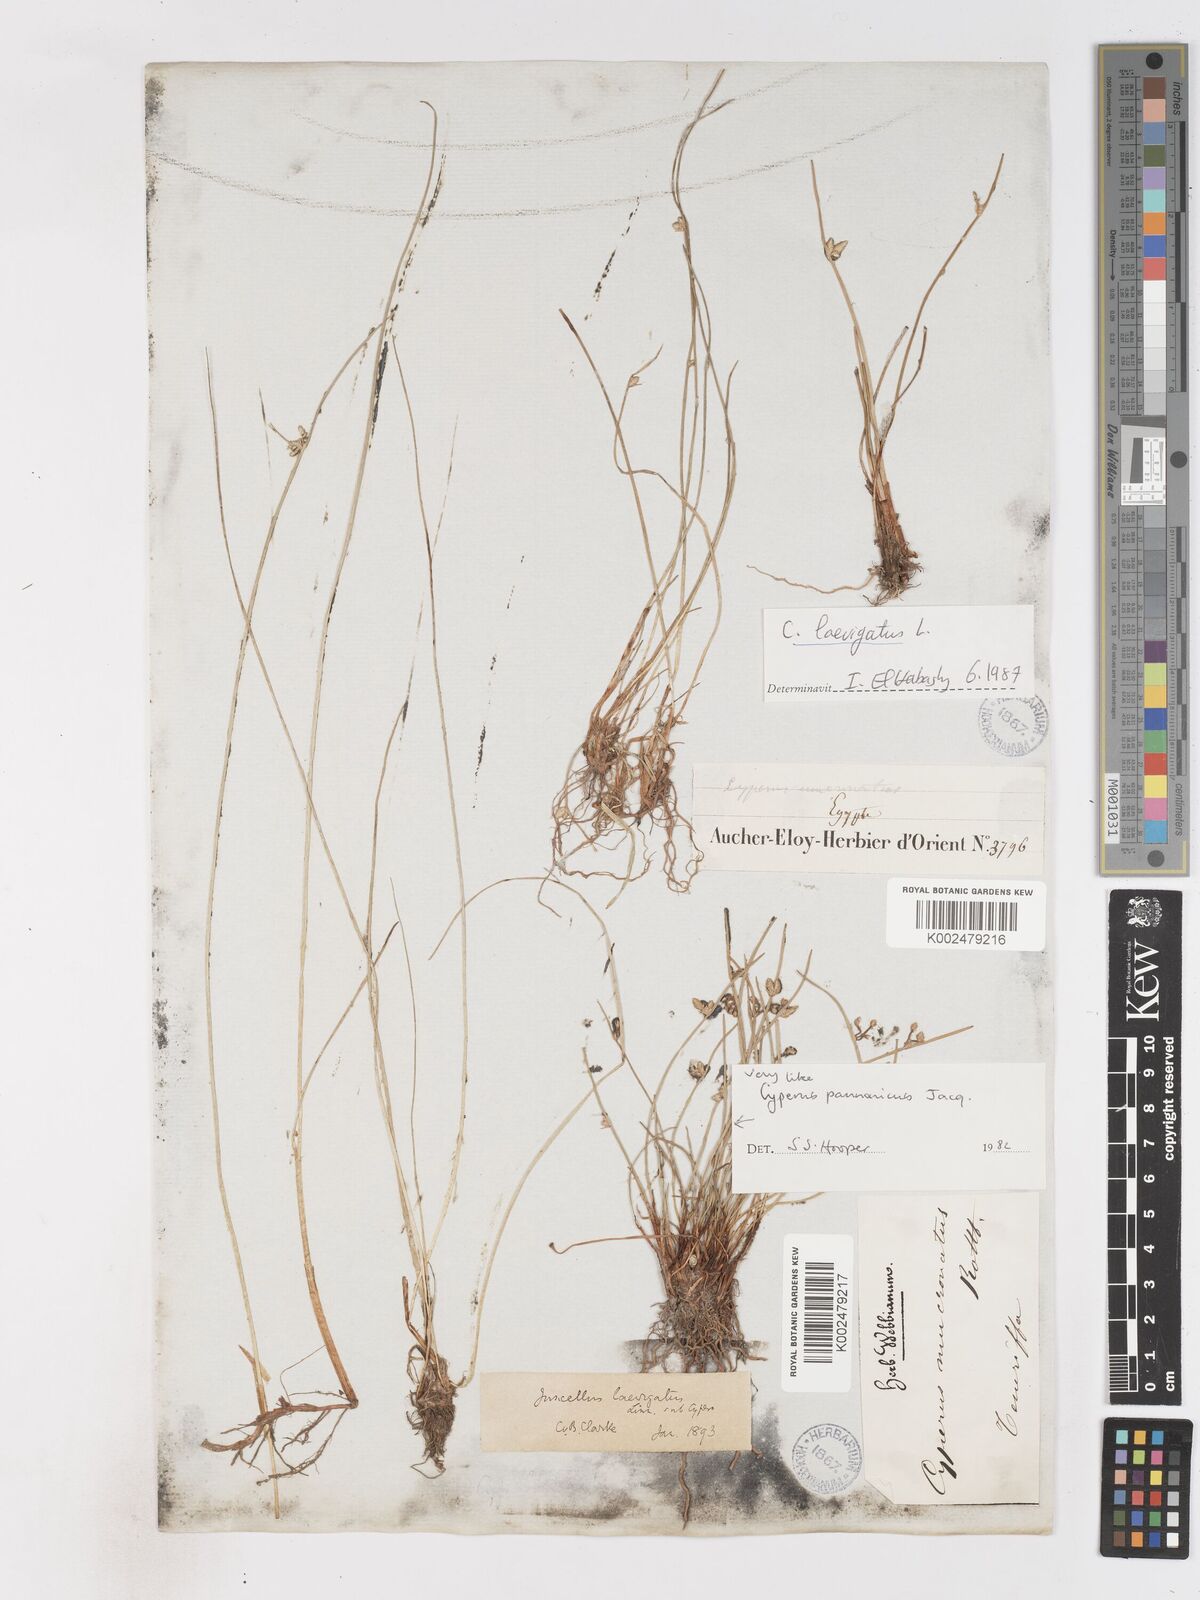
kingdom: Plantae
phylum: Tracheophyta
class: Liliopsida
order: Poales
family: Cyperaceae
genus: Cyperus
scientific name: Cyperus laevigatus
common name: Smooth flat sedge
